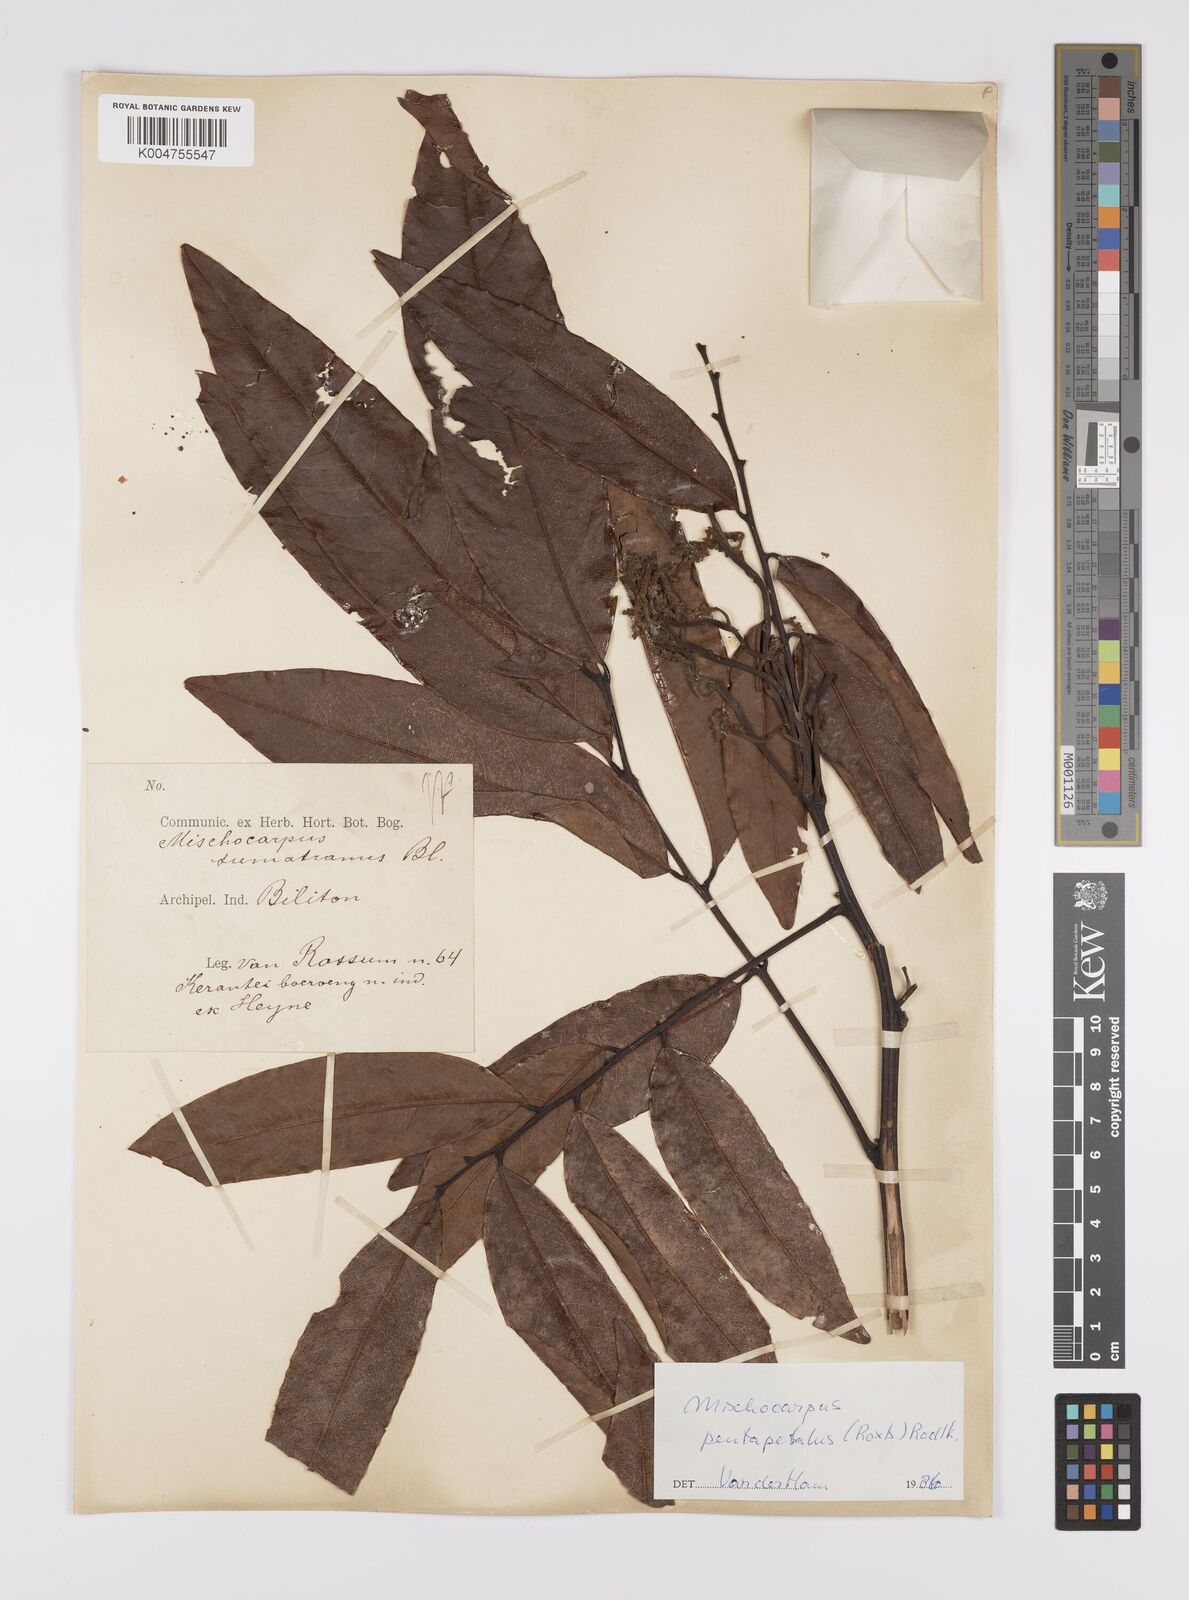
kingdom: Plantae
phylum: Tracheophyta
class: Magnoliopsida
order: Sapindales
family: Sapindaceae
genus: Mischocarpus
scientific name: Mischocarpus pentapetalus
